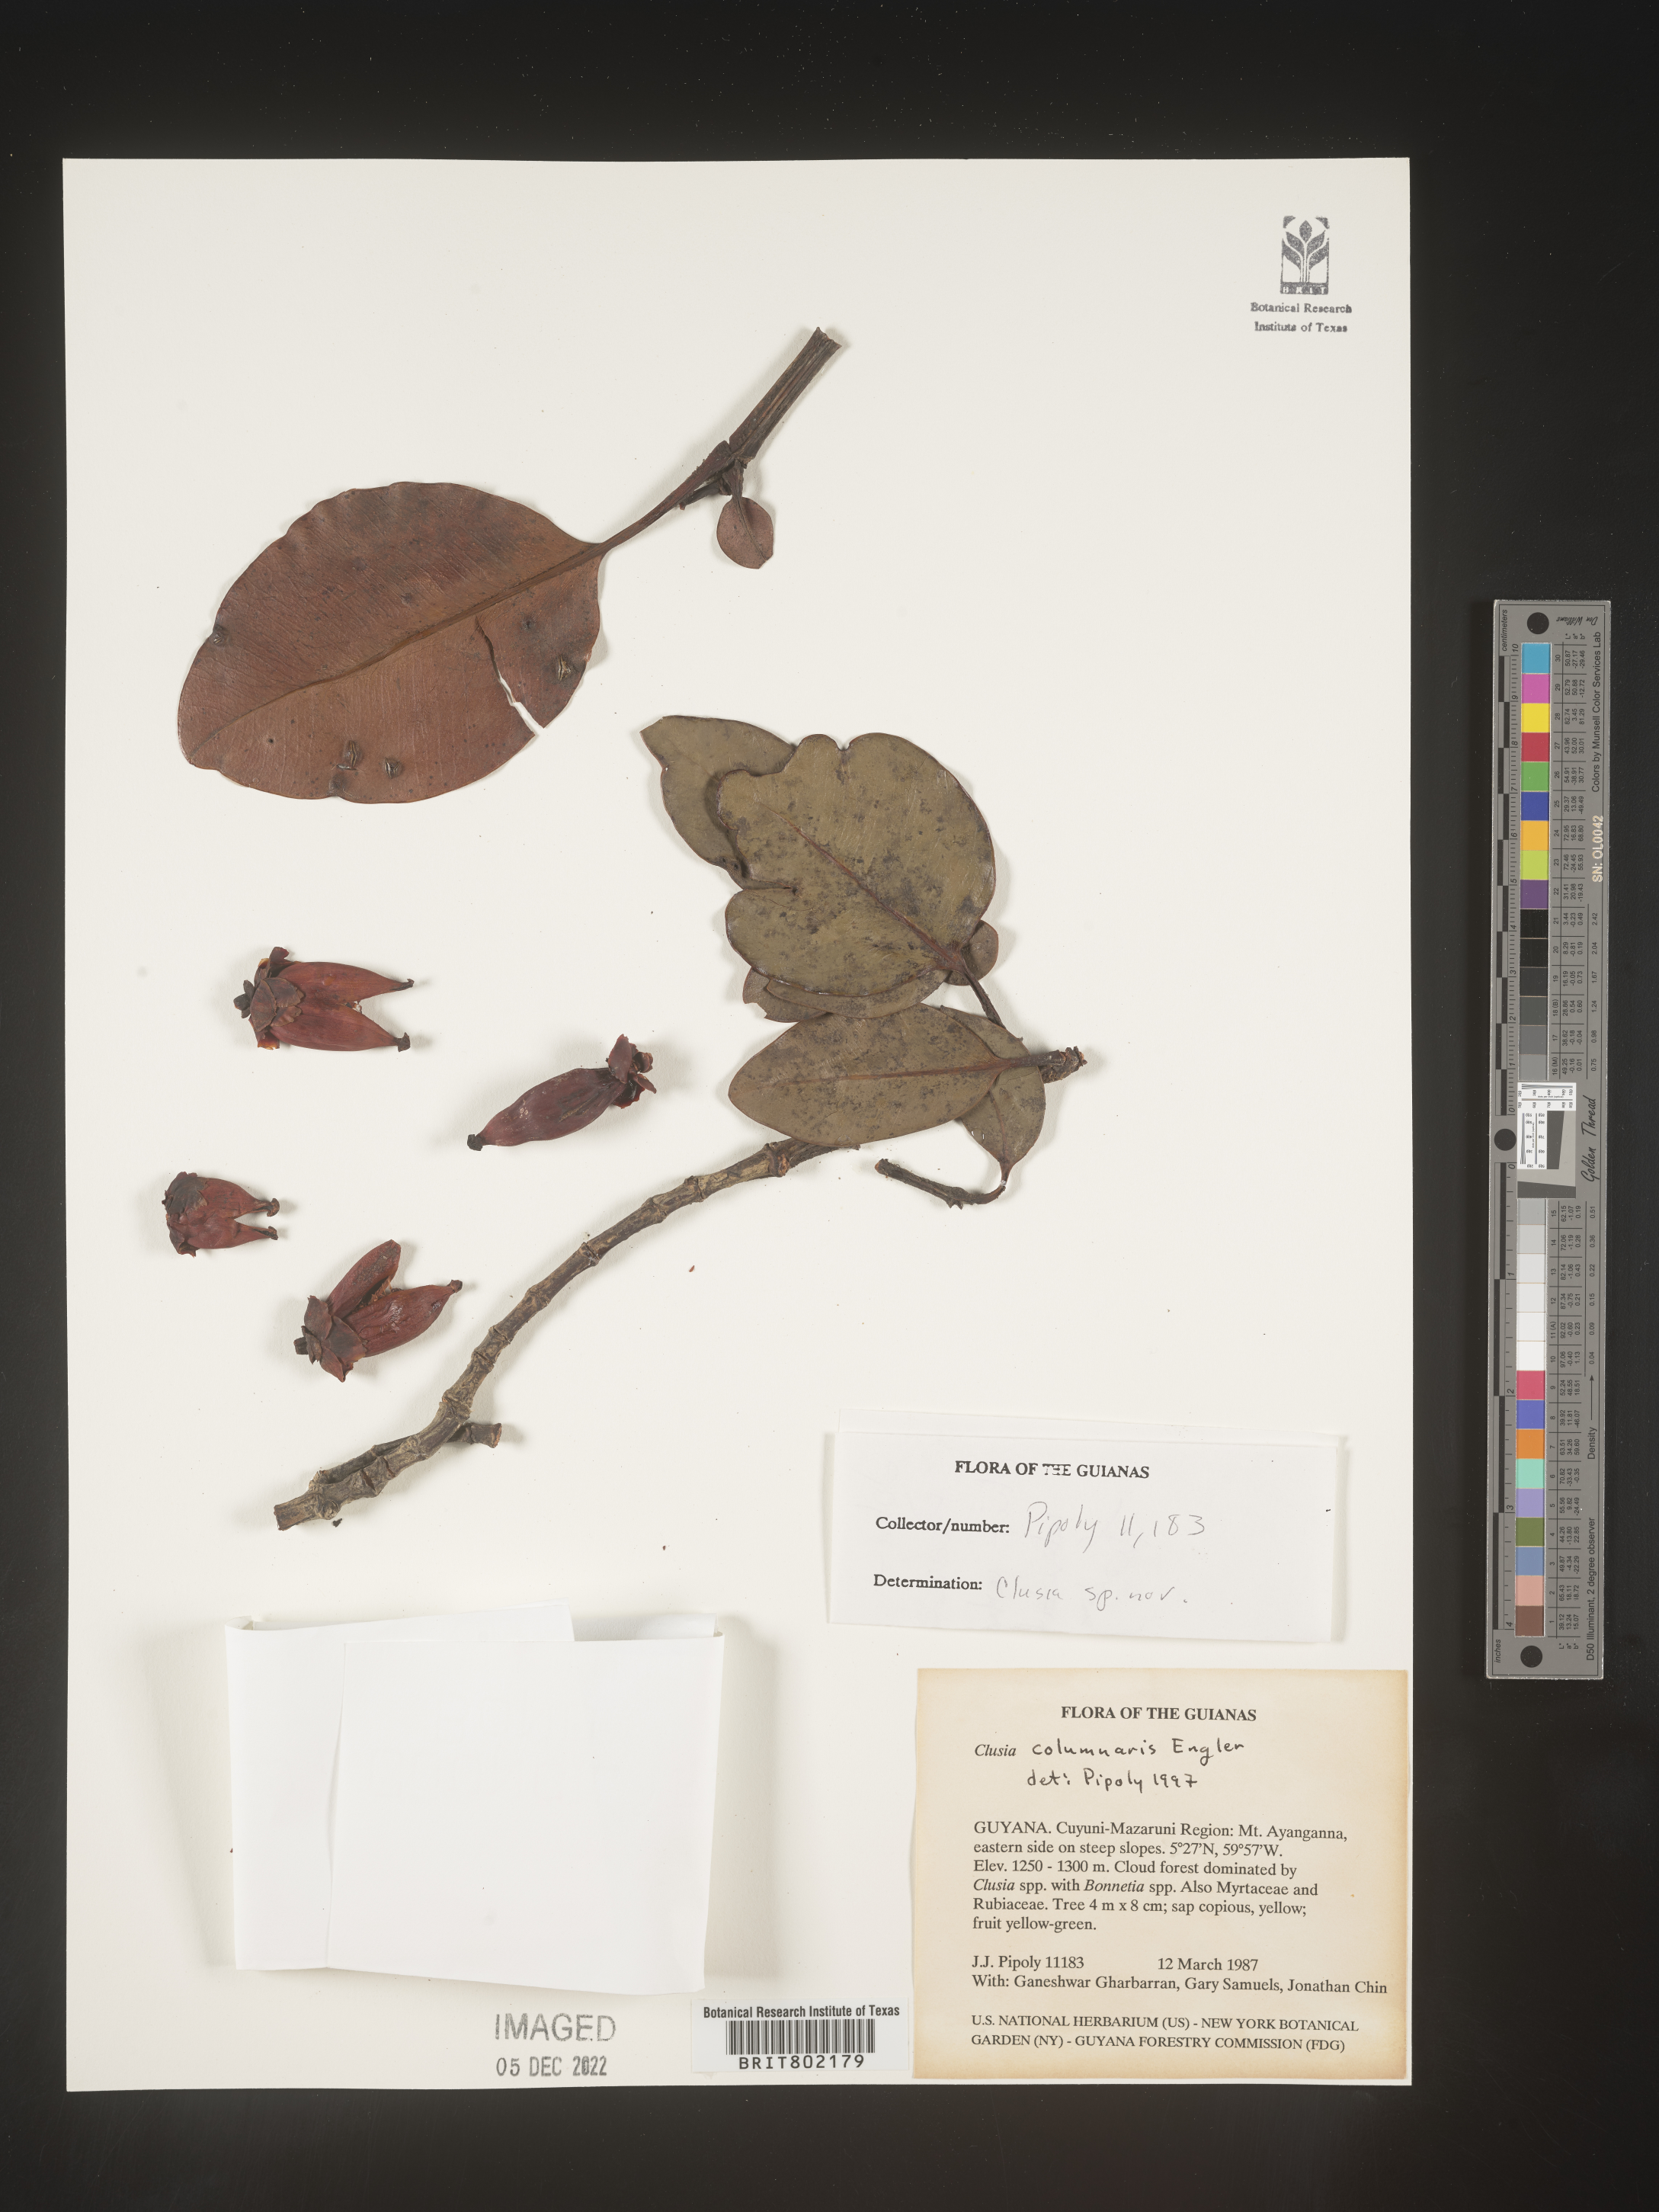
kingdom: Plantae
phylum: Tracheophyta
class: Magnoliopsida
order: Malpighiales
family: Clusiaceae
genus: Clusia
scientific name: Clusia columnaris
